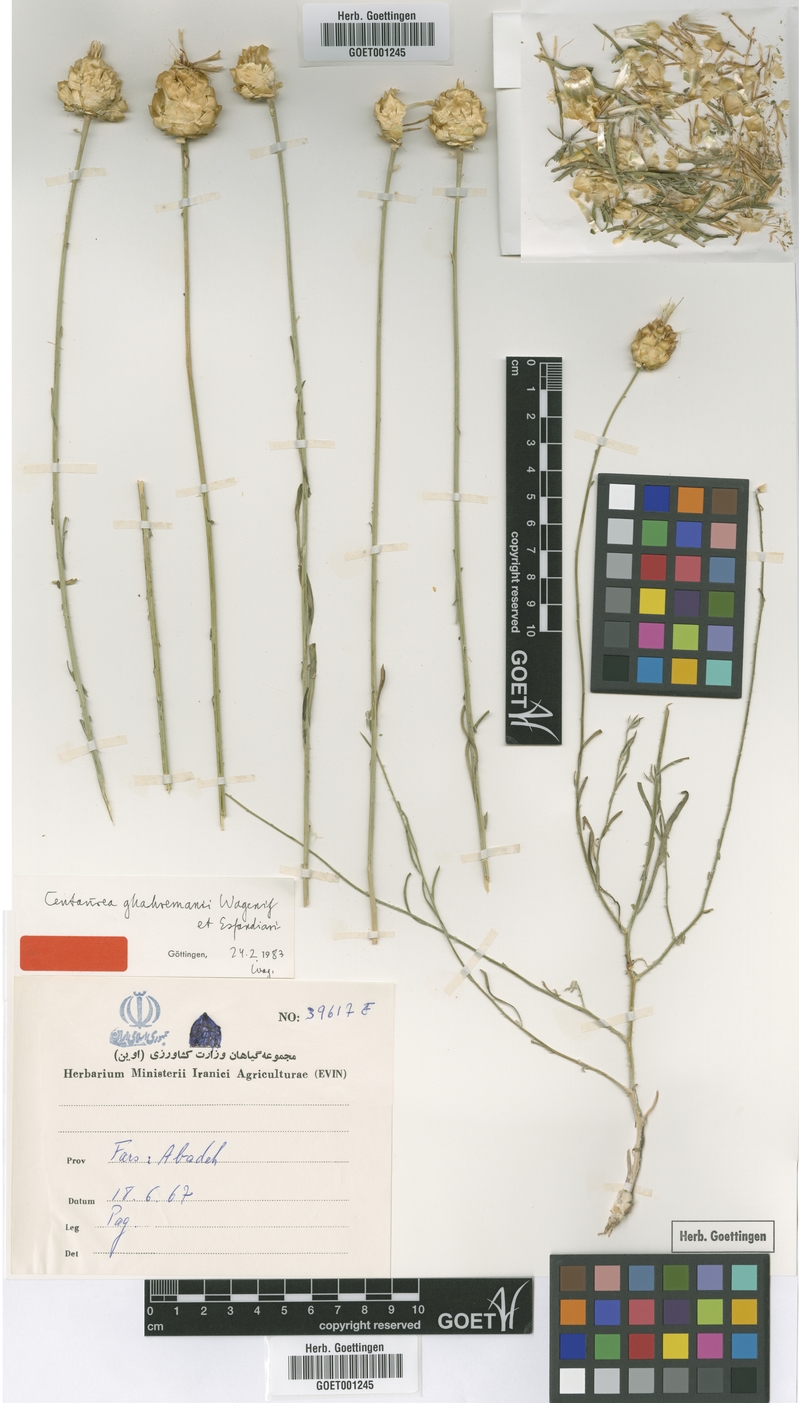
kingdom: Plantae
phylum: Tracheophyta
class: Magnoliopsida
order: Asterales
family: Asteraceae
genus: Centaurea
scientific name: Centaurea ghahremanii
